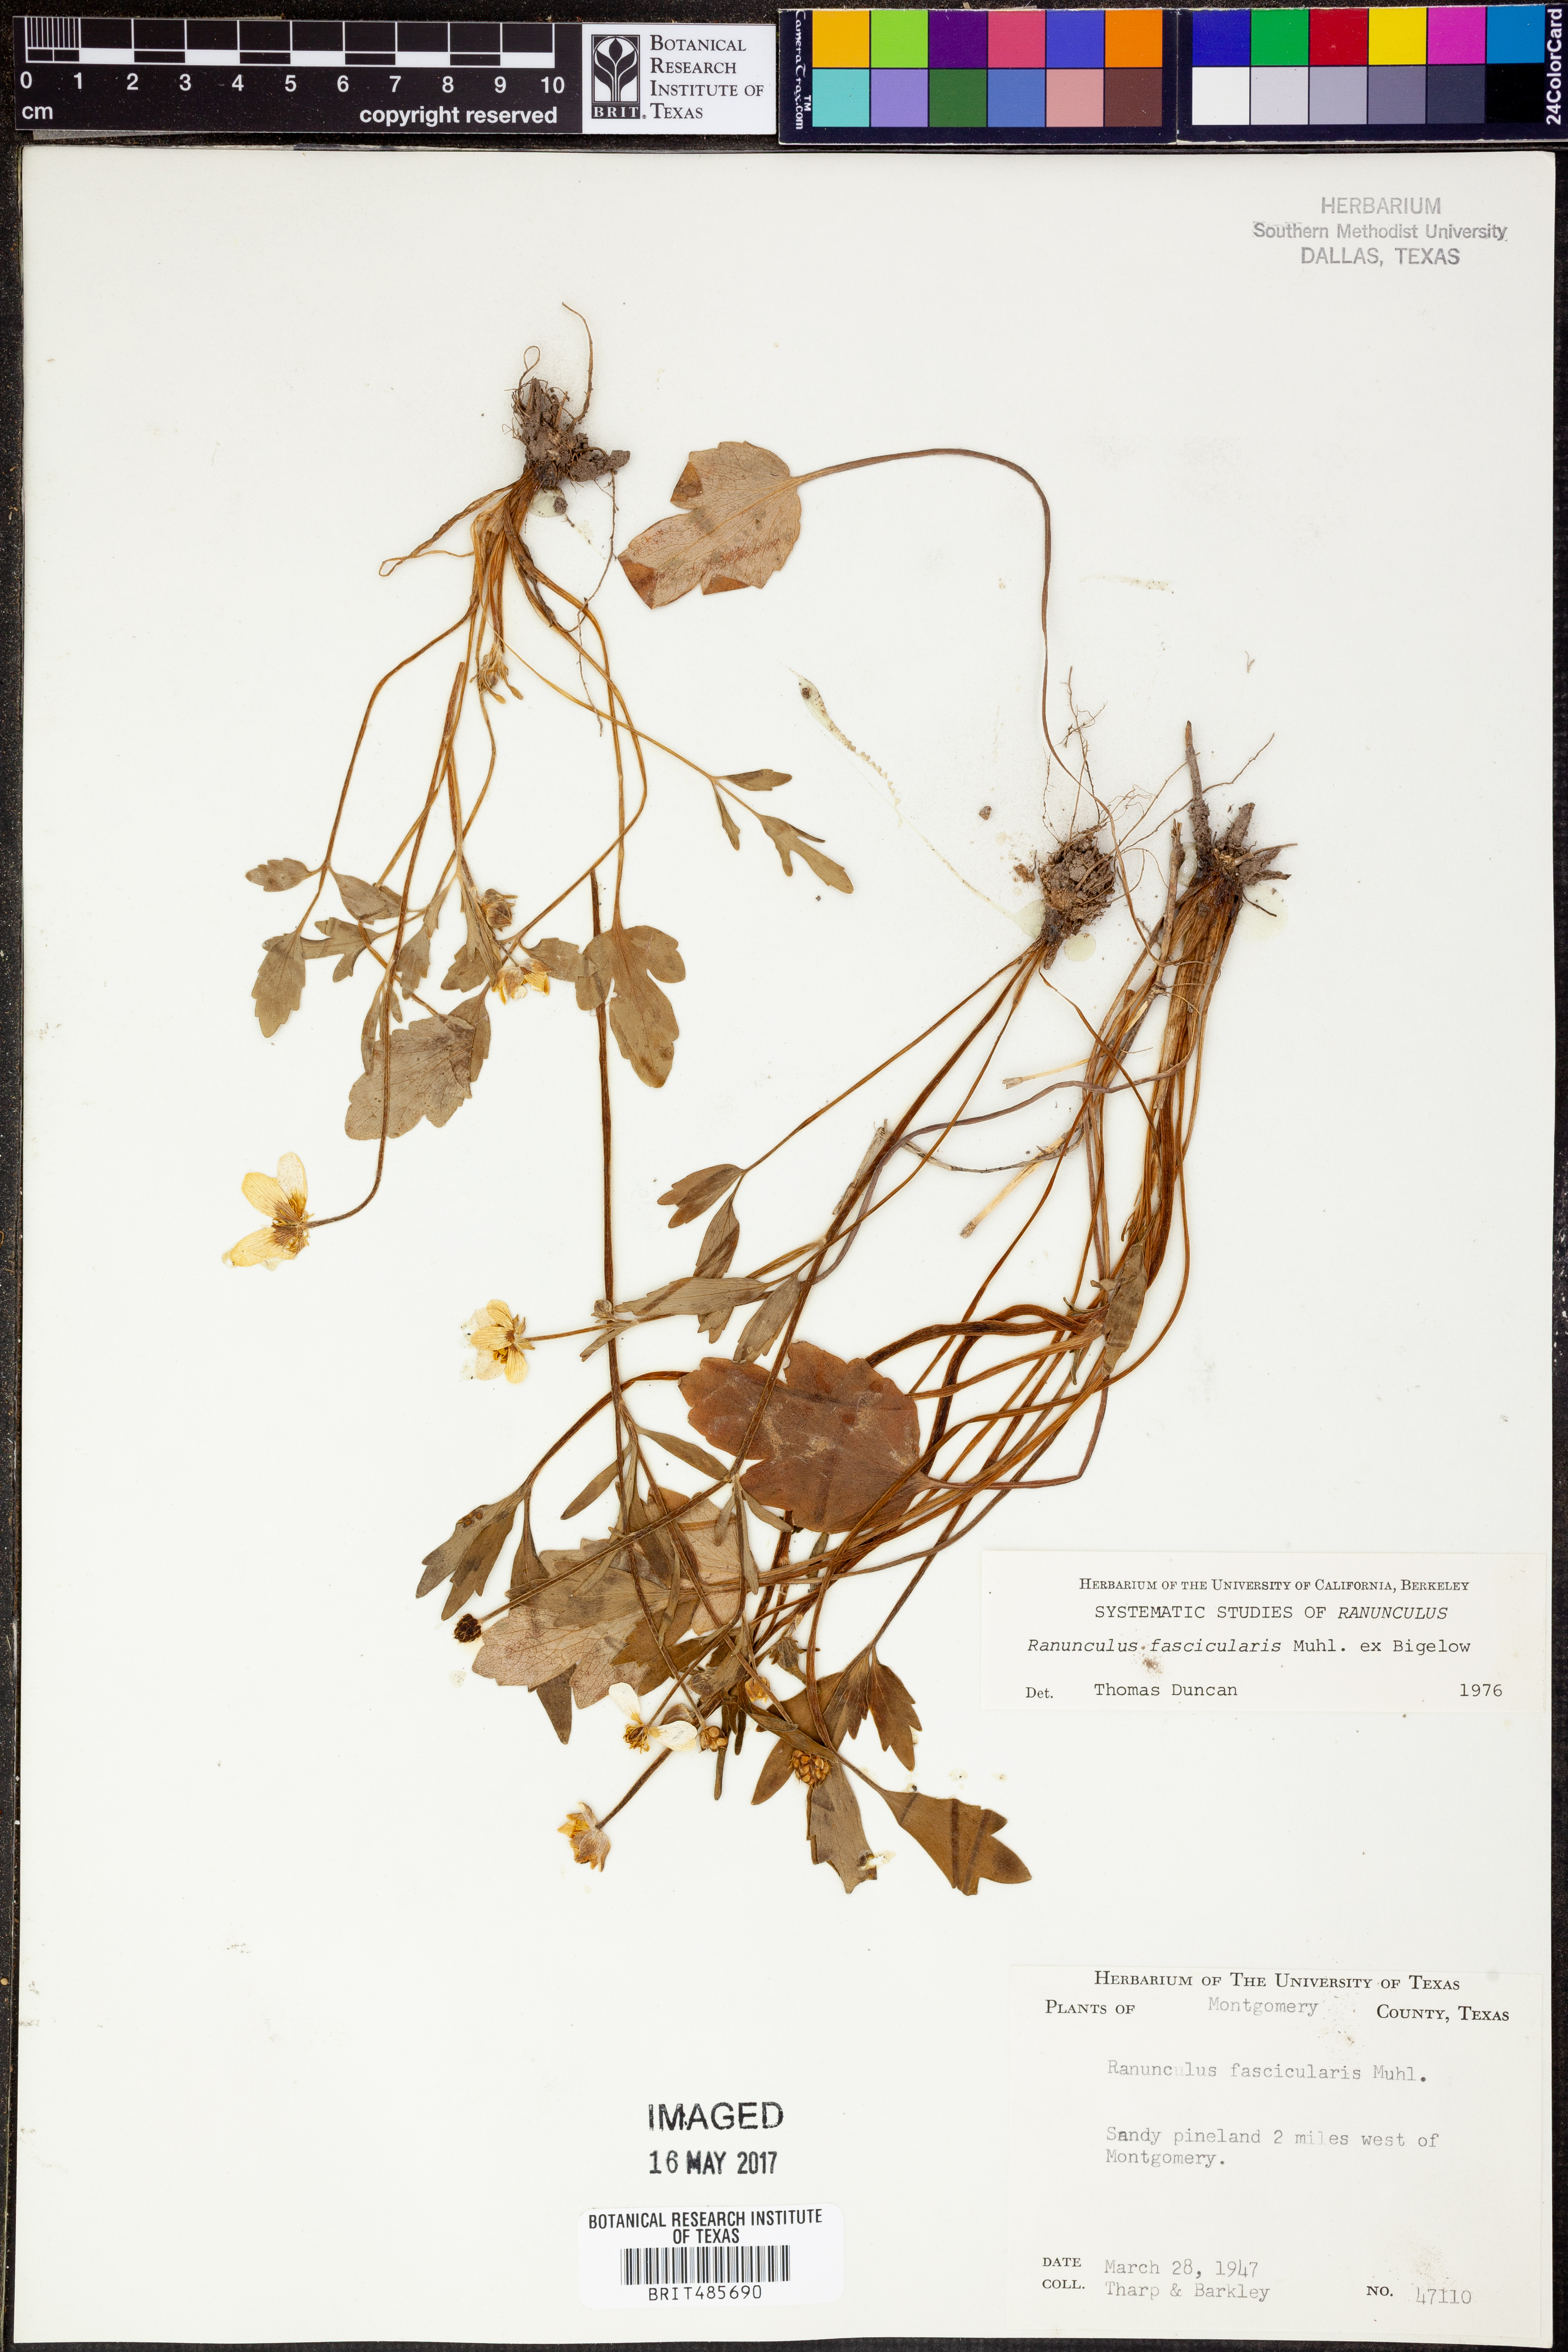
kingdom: Plantae
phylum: Tracheophyta
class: Magnoliopsida
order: Ranunculales
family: Ranunculaceae
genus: Ranunculus
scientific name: Ranunculus fascicularis
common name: Early buttercup
